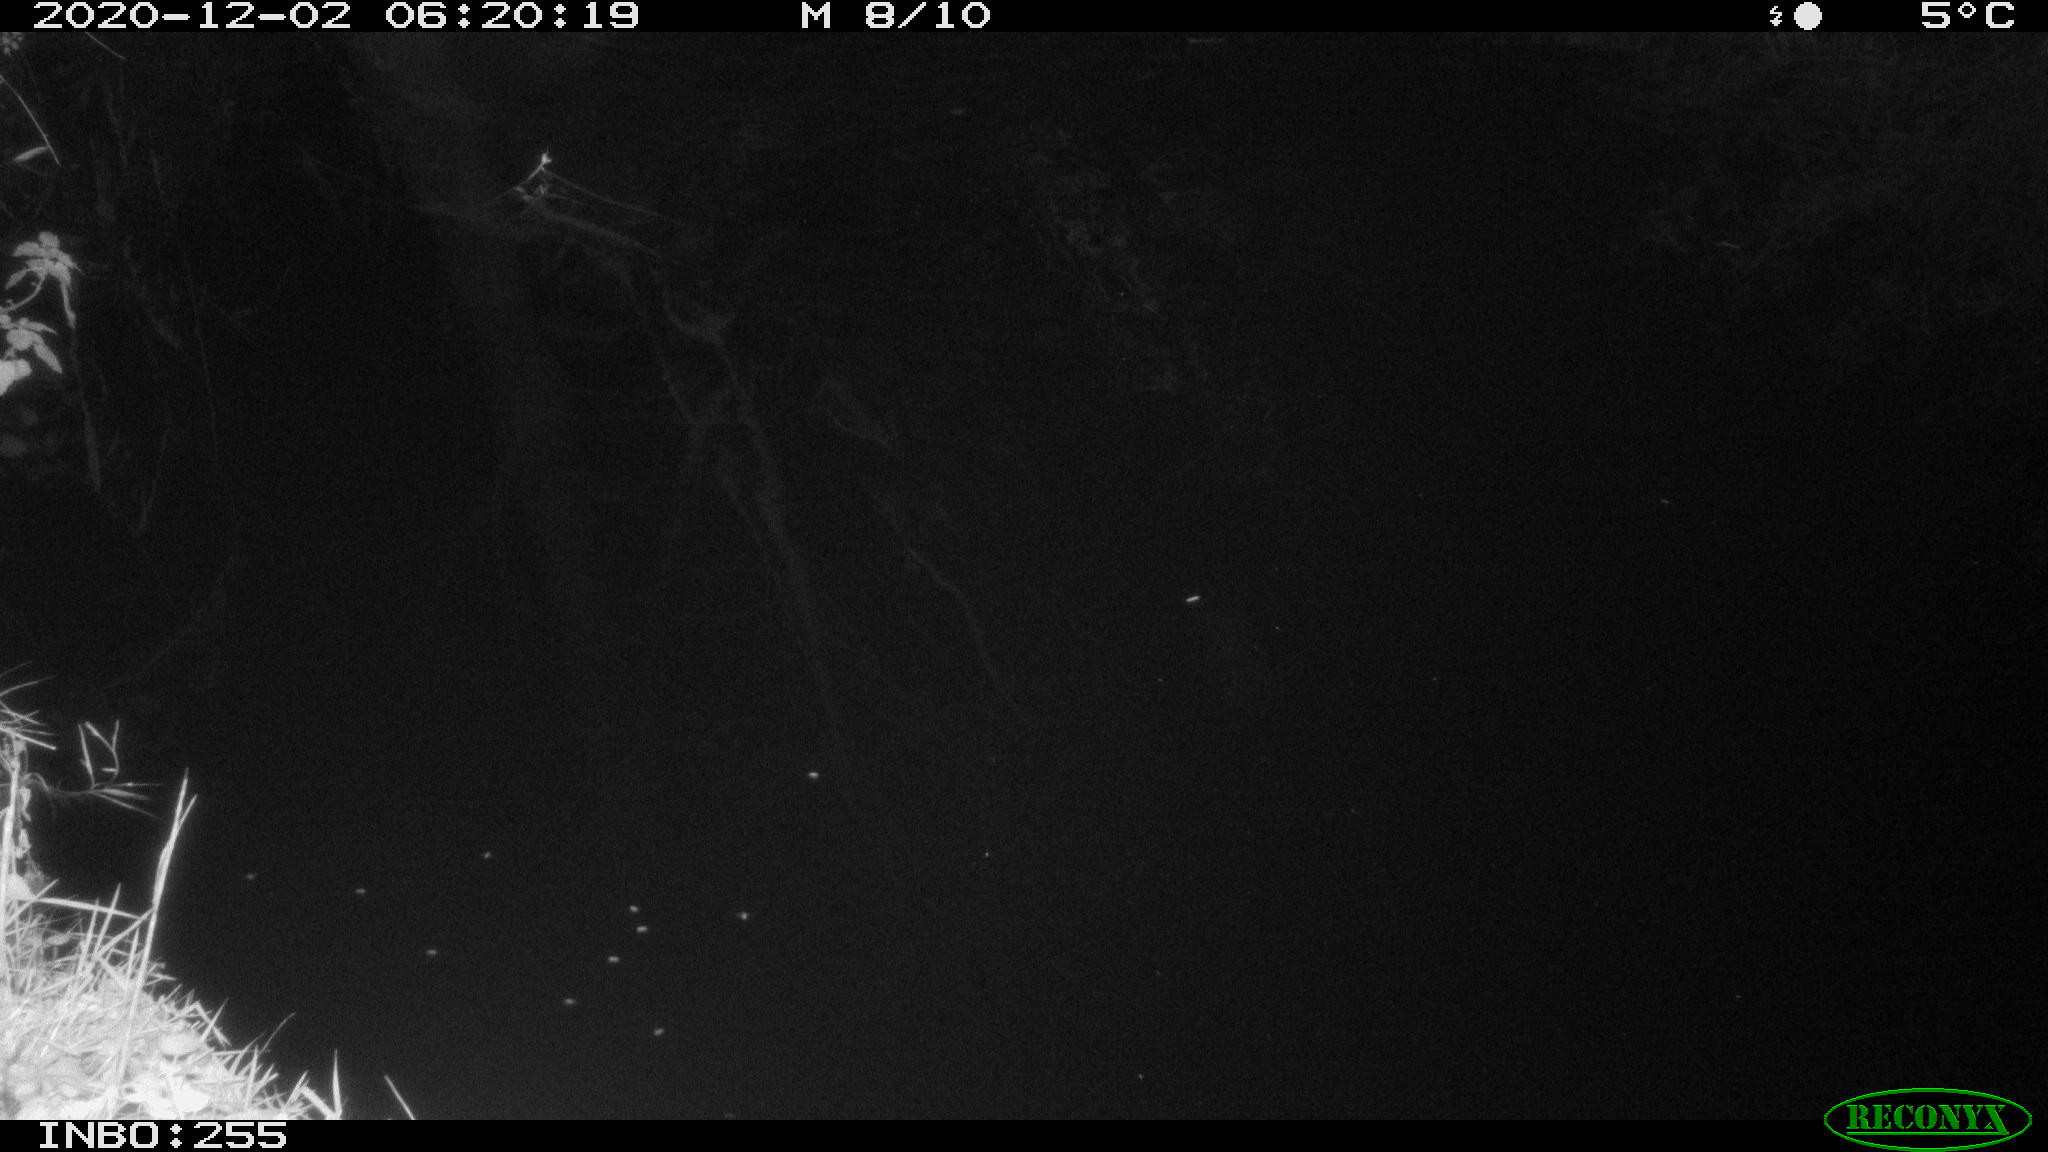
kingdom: Animalia
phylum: Chordata
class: Mammalia
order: Rodentia
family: Muridae
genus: Rattus
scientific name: Rattus norvegicus
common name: Brown rat
